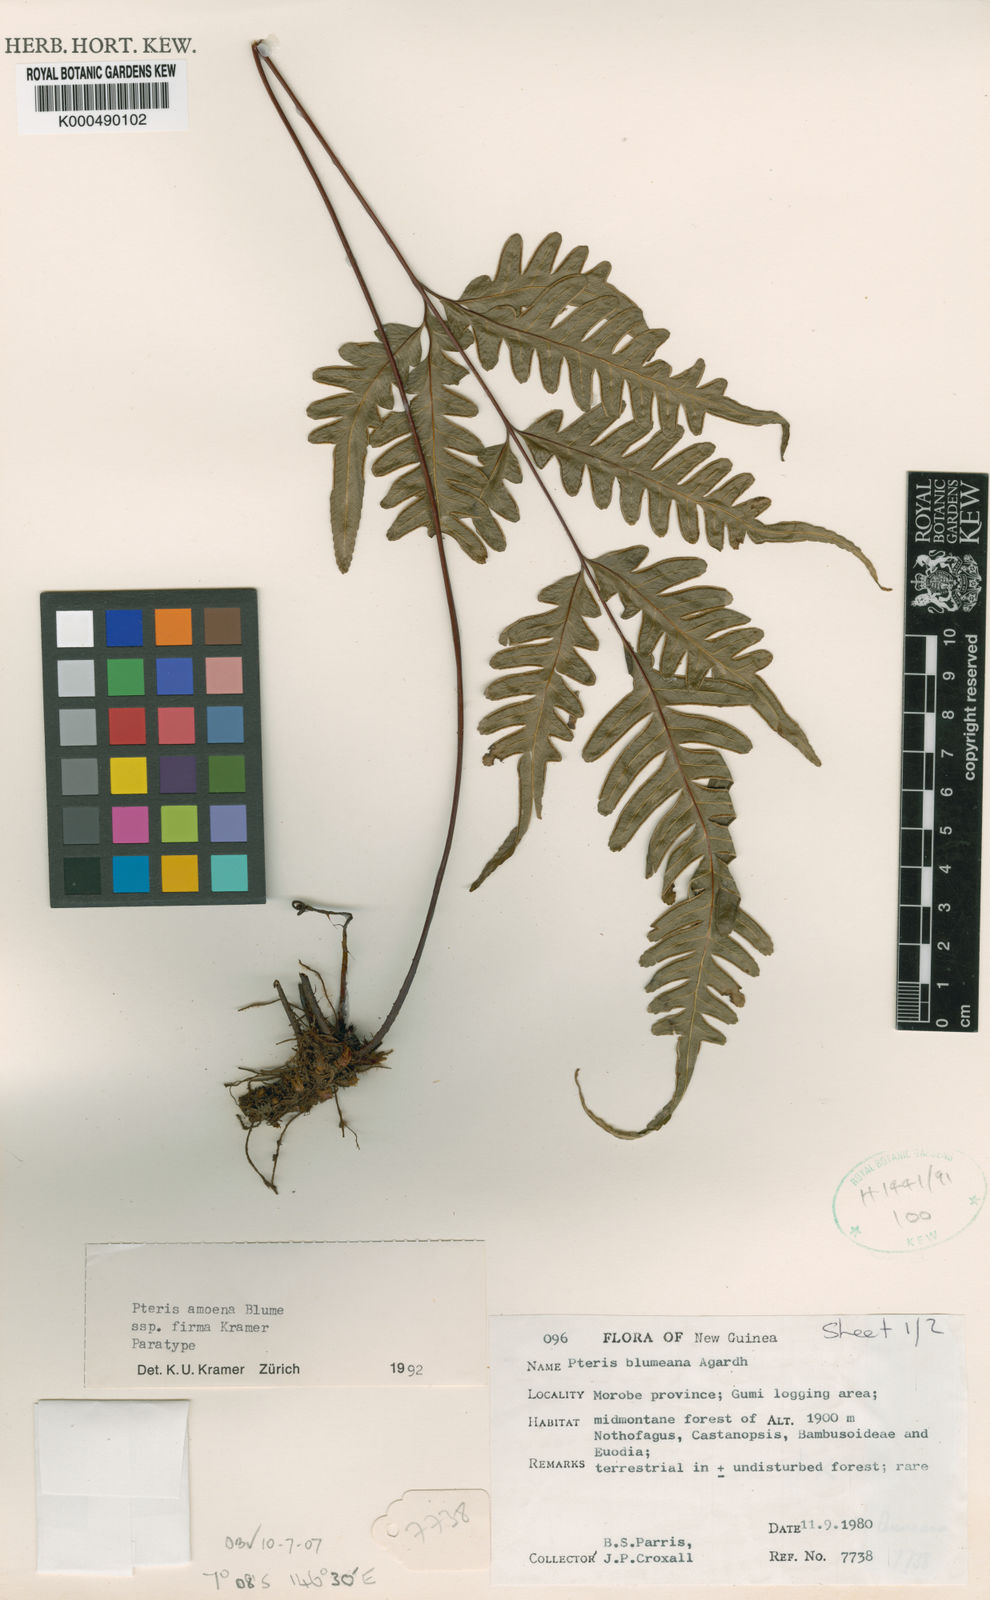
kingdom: Plantae
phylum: Tracheophyta
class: Polypodiopsida
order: Polypodiales
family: Pteridaceae
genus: Pteris
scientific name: Pteris amoena
